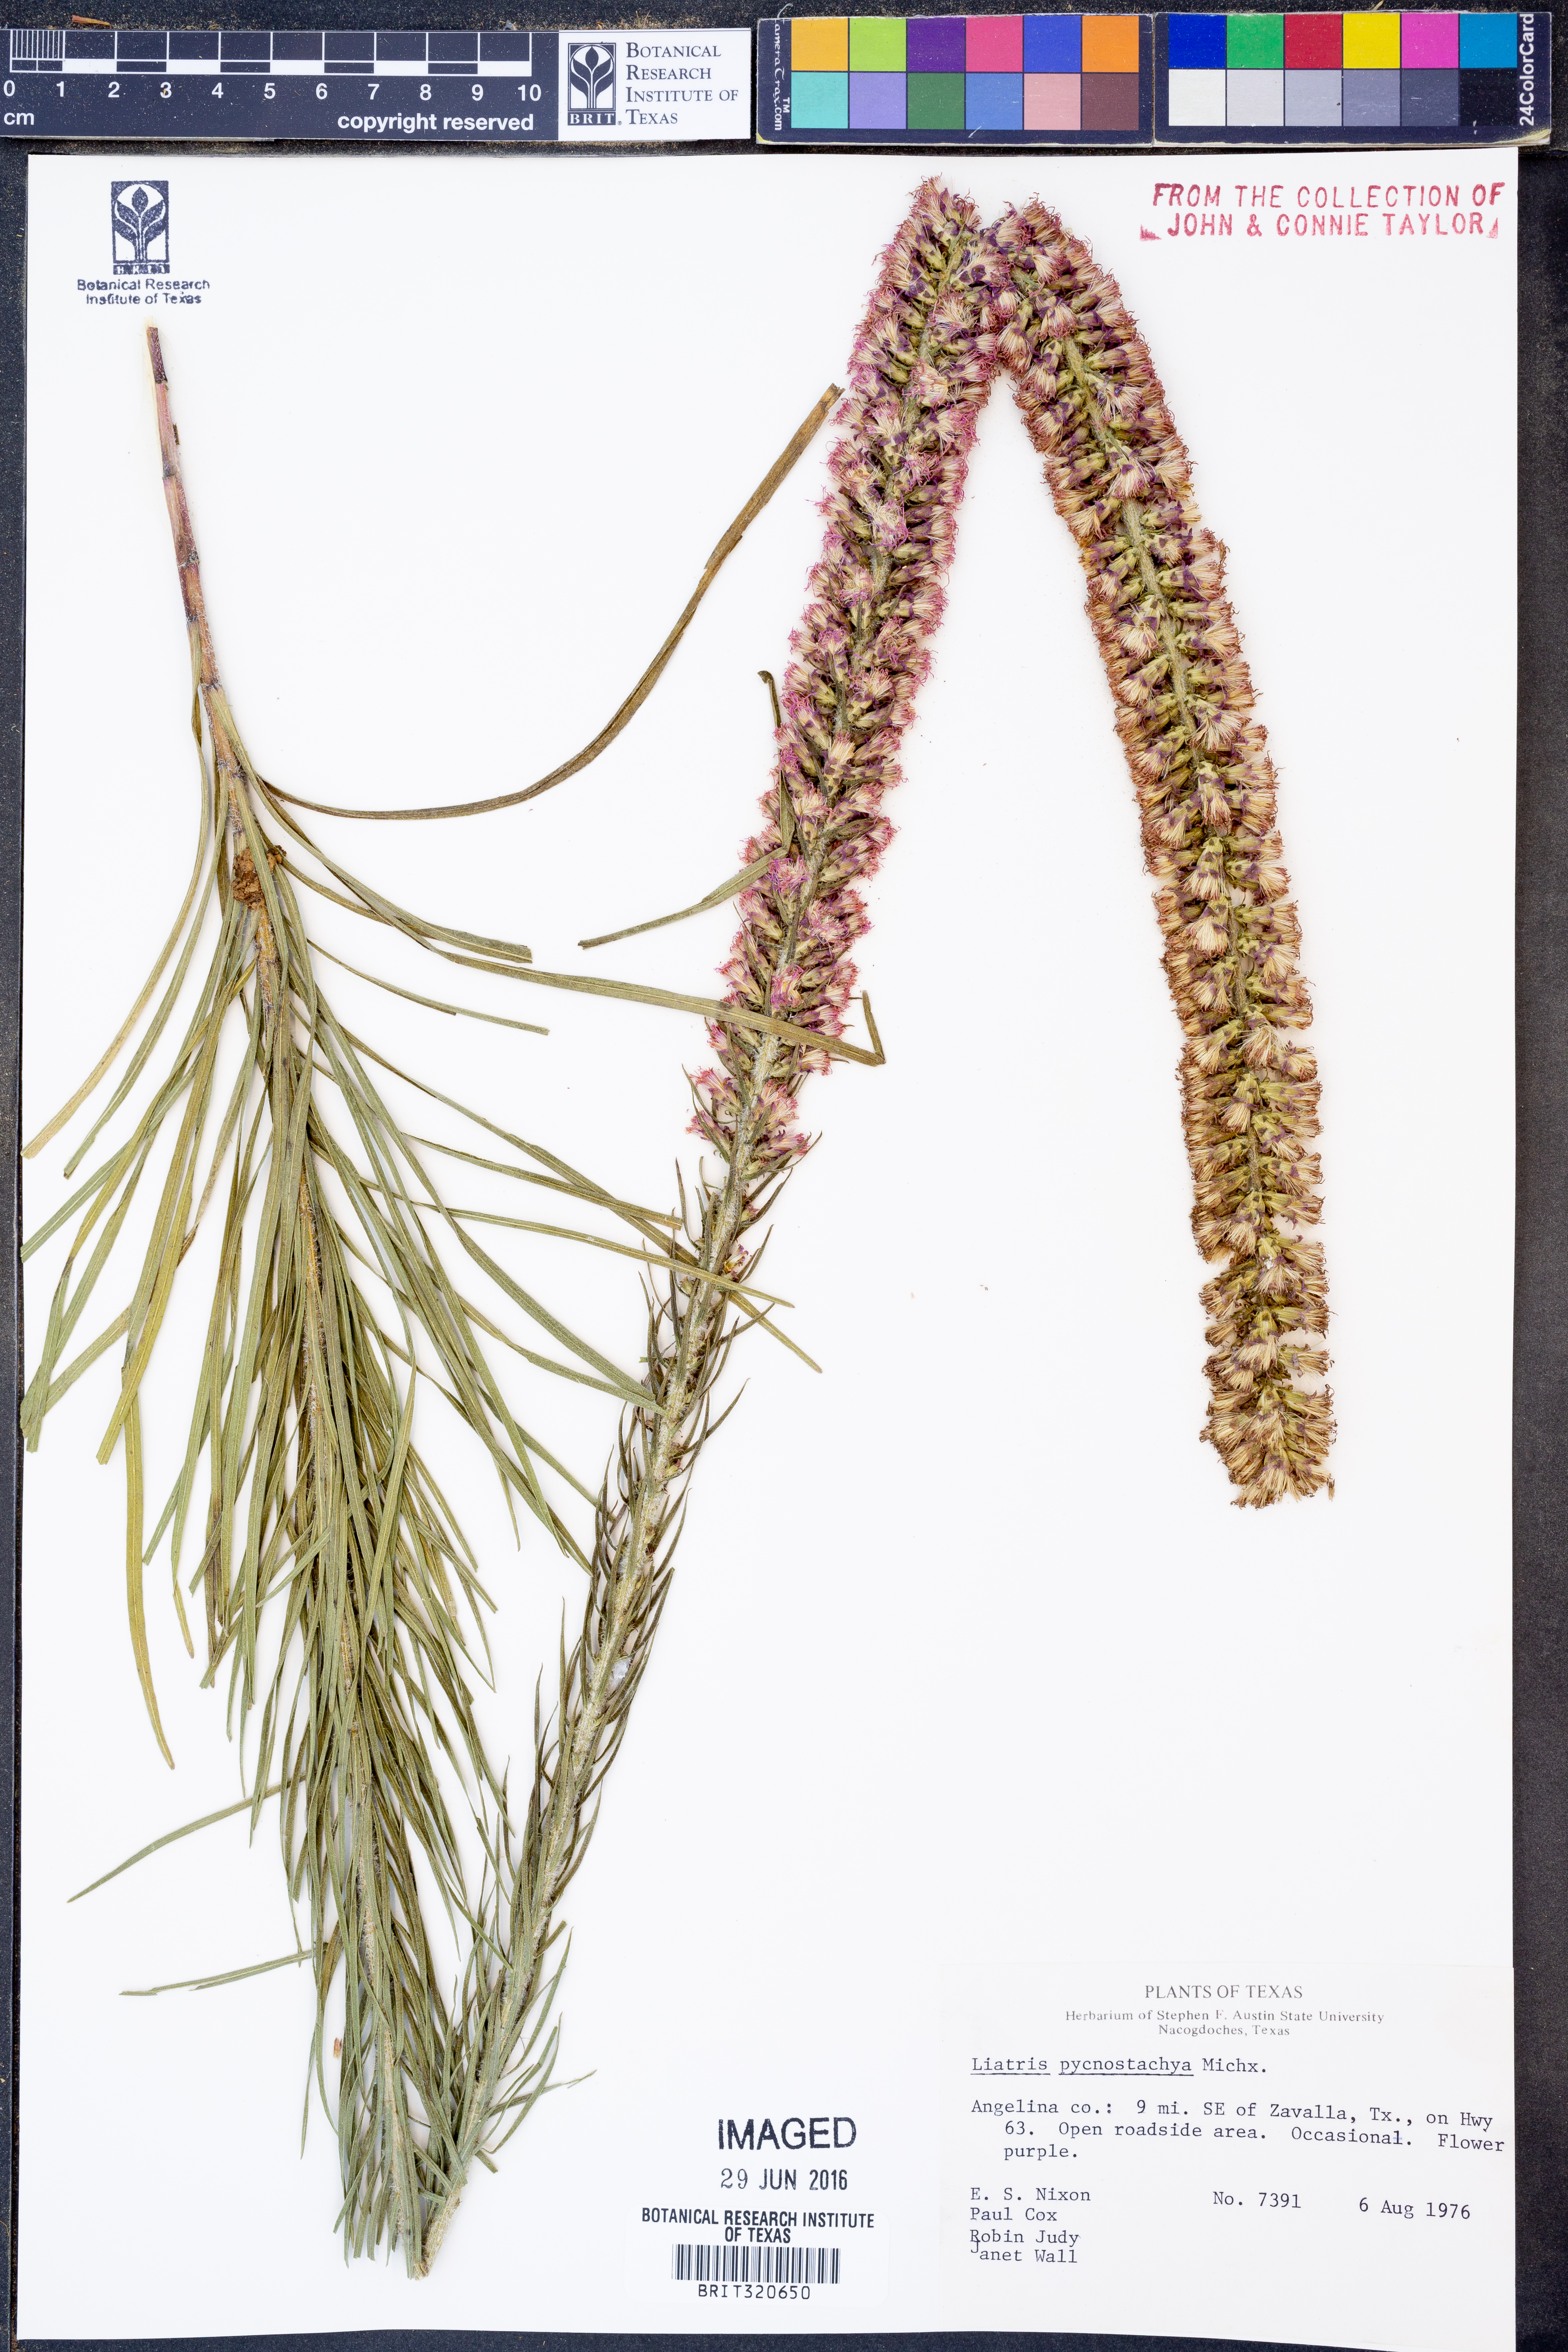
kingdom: Plantae
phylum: Tracheophyta
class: Magnoliopsida
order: Asterales
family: Asteraceae
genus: Liatris
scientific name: Liatris pycnostachya
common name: Cattail gayfeather
